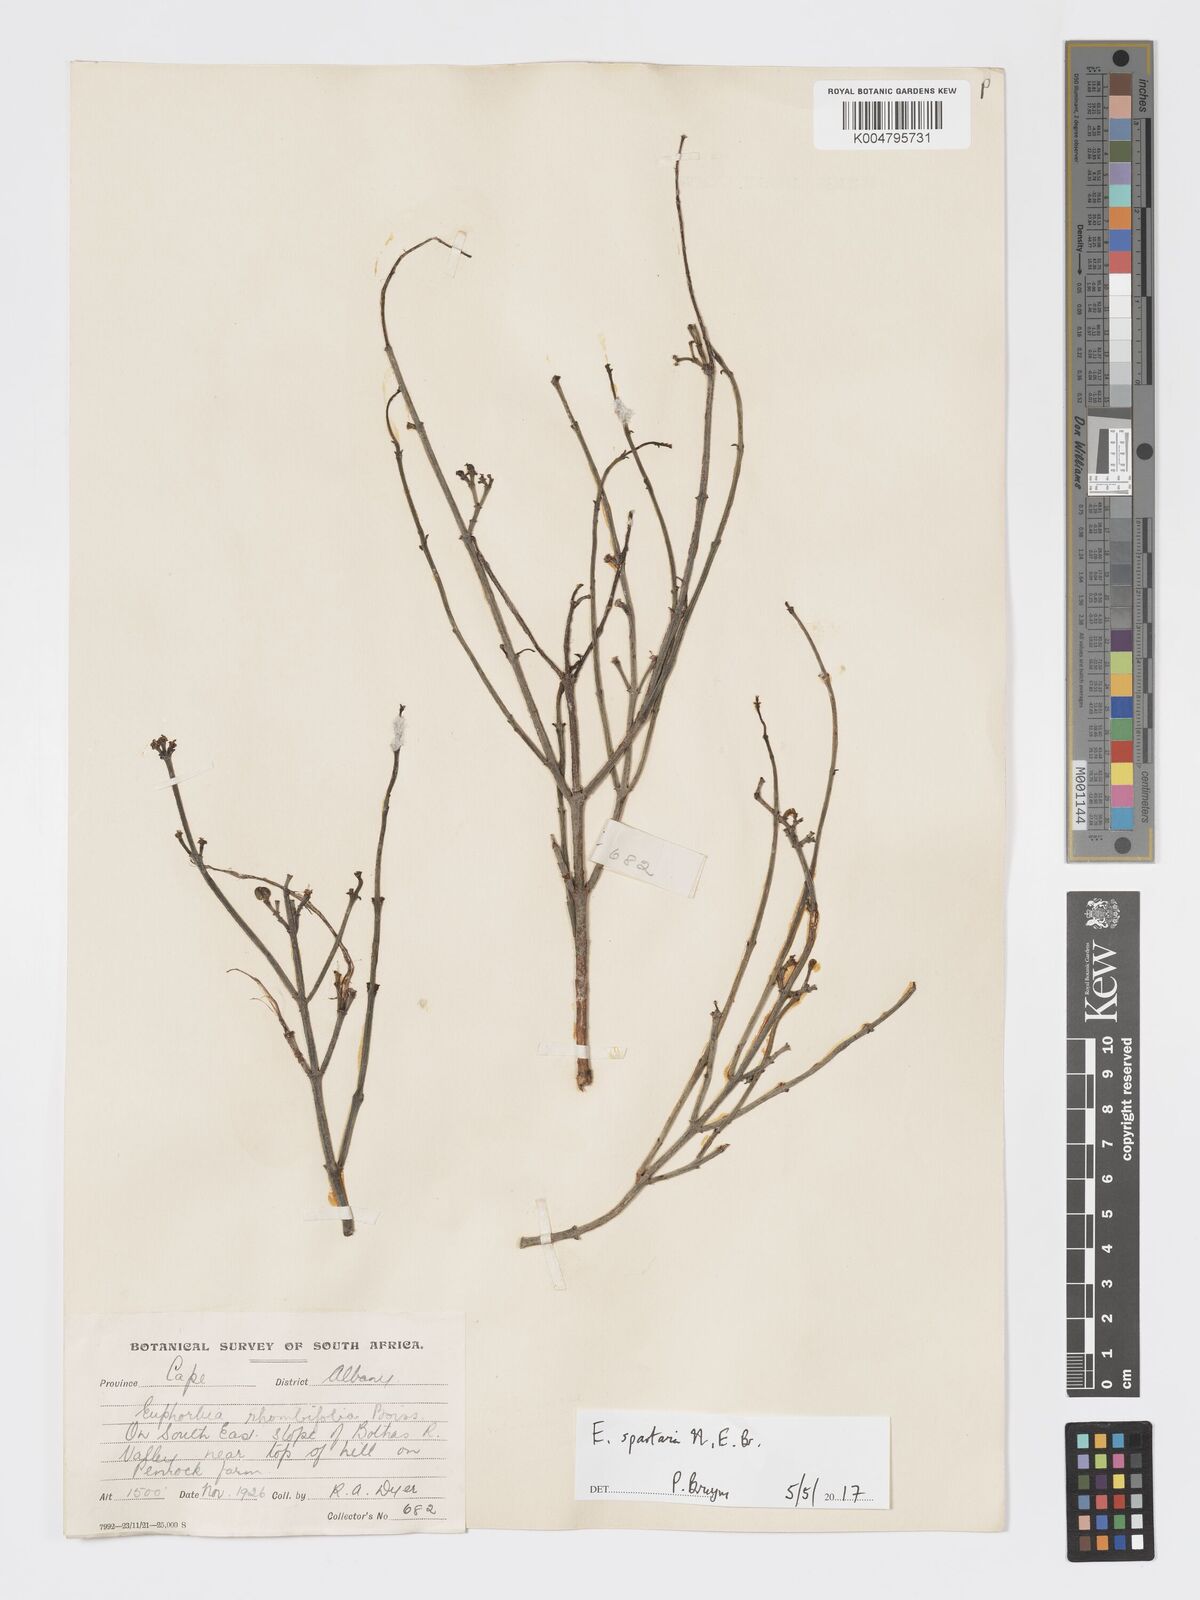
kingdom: Plantae
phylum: Tracheophyta
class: Magnoliopsida
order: Malpighiales
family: Euphorbiaceae
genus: Euphorbia
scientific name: Euphorbia spartaria
